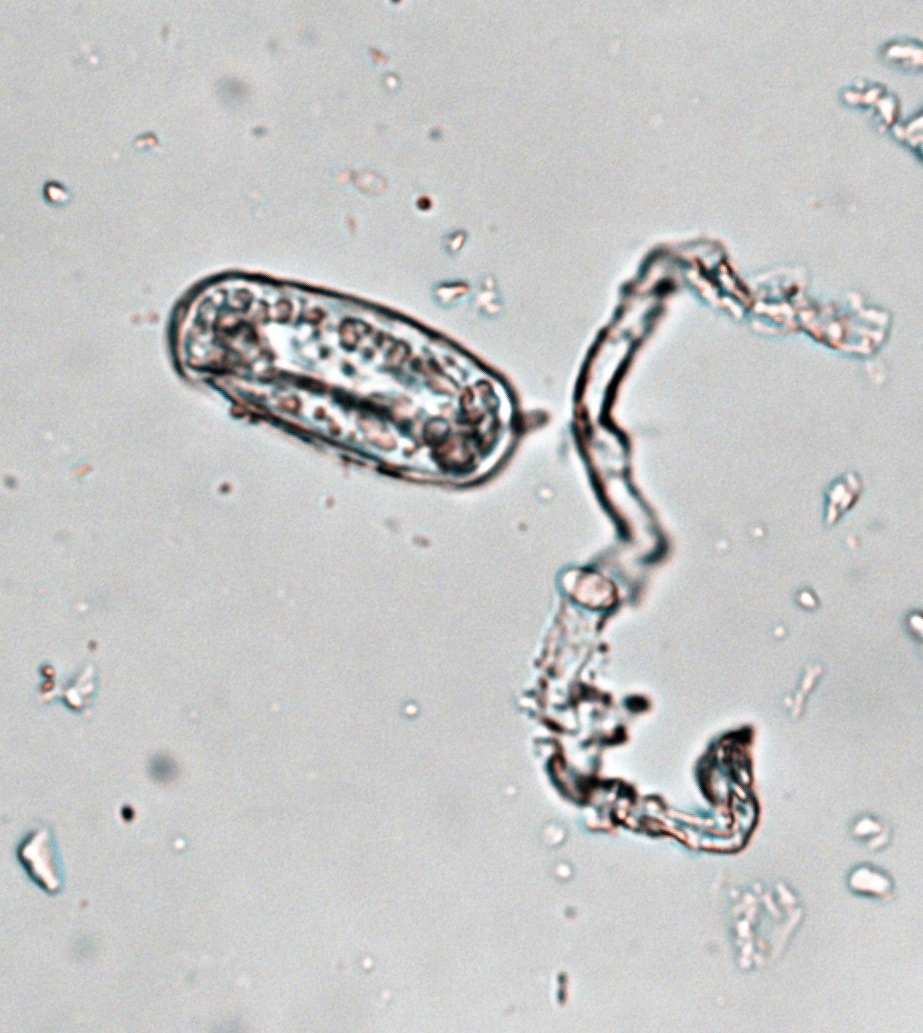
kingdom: Fungi
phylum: Ascomycota
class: Leotiomycetes
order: Helotiales
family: Erysiphaceae
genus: Erysiphe
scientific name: Erysiphe hedwigii
